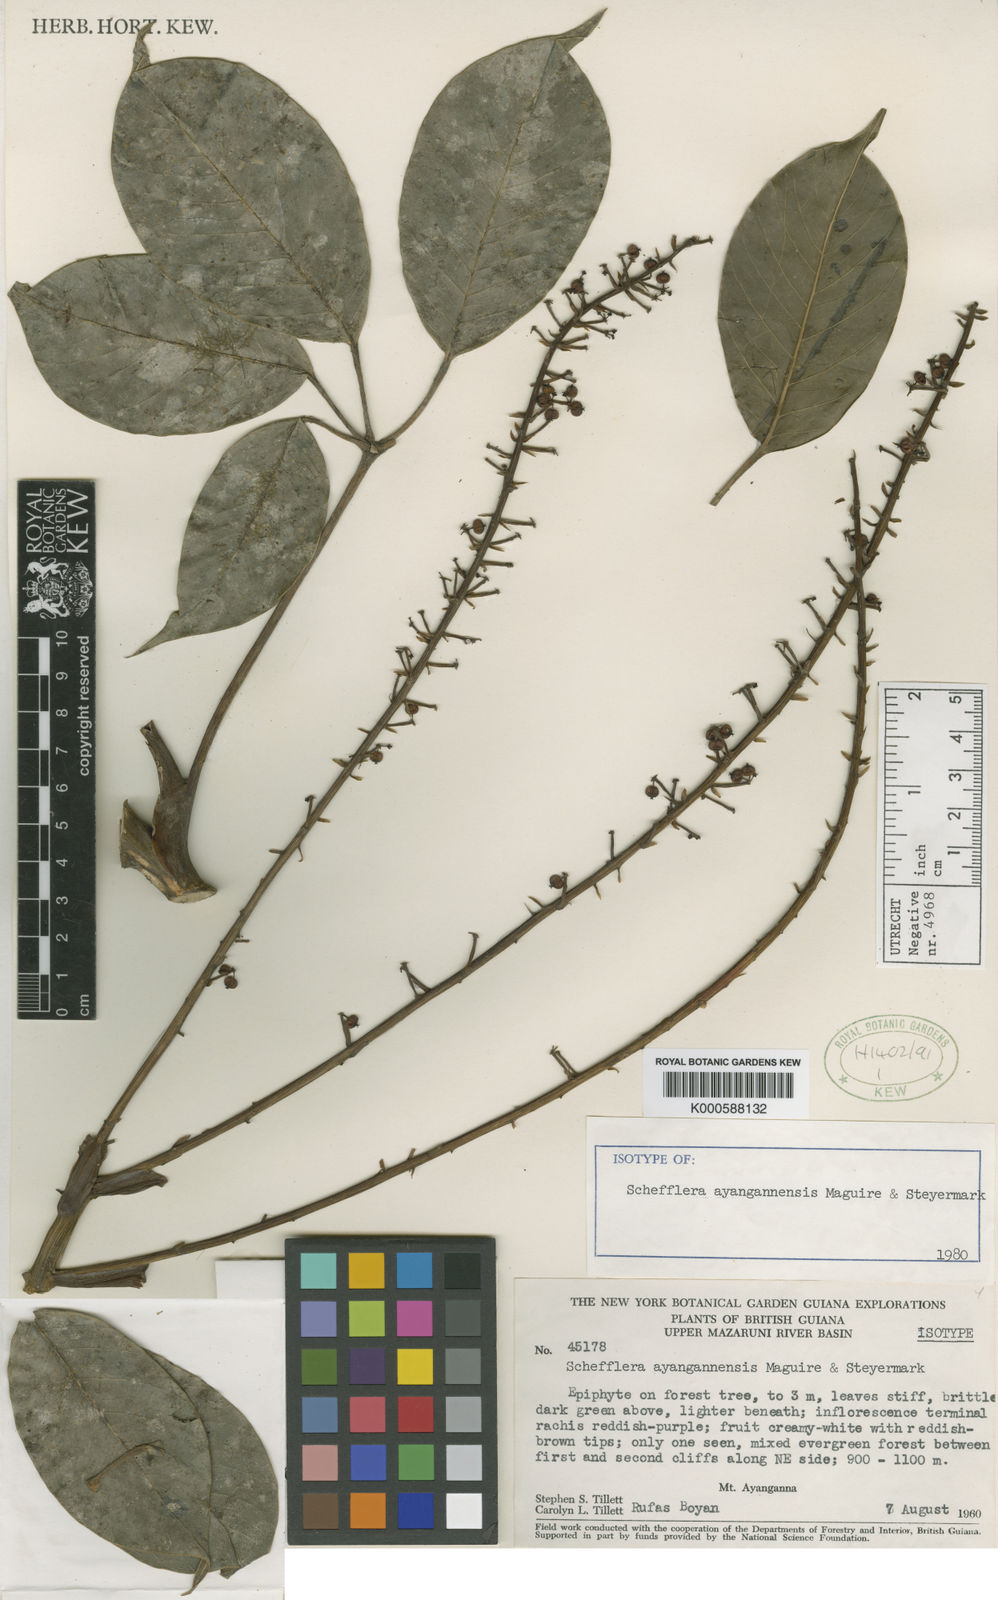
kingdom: Plantae
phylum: Tracheophyta
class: Magnoliopsida
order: Apiales
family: Araliaceae
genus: Sciodaphyllum
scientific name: Sciodaphyllum ayangannense
